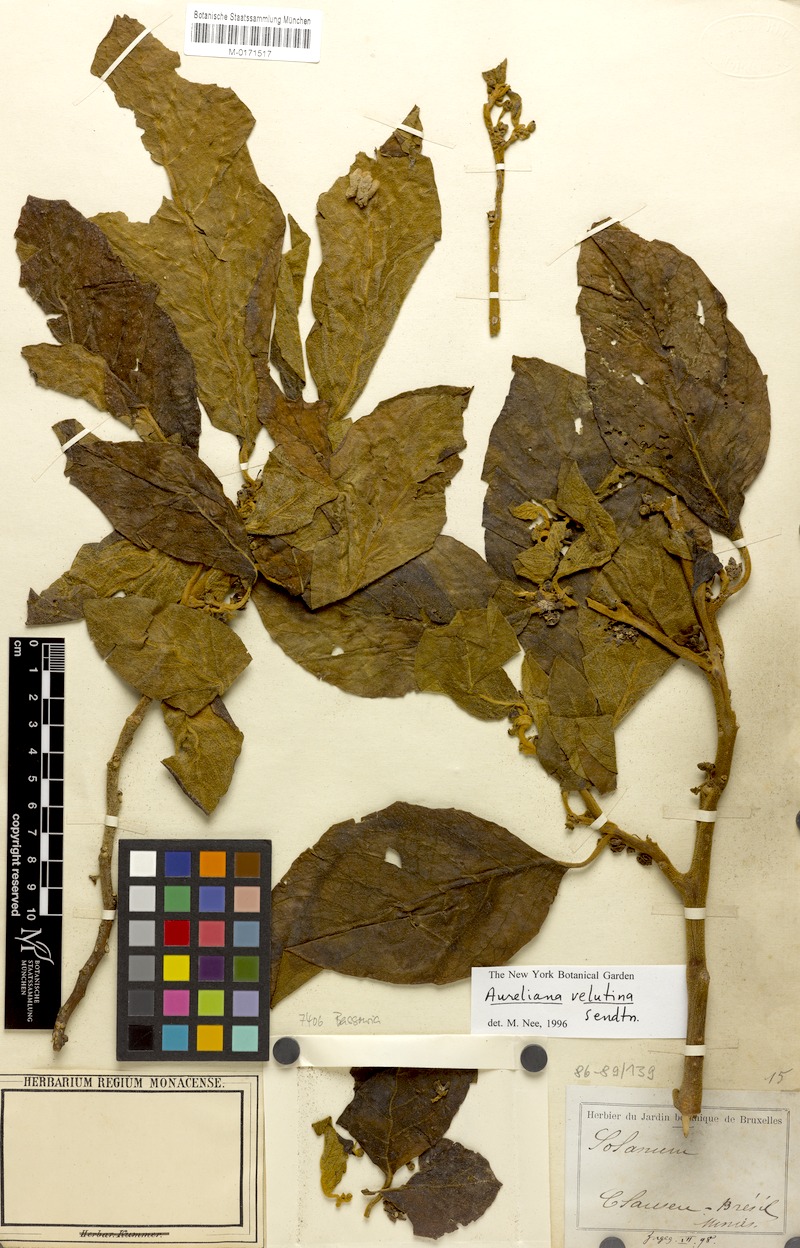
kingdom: Plantae
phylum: Tracheophyta
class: Magnoliopsida
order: Solanales
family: Solanaceae
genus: Athenaea
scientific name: Athenaea velutina
